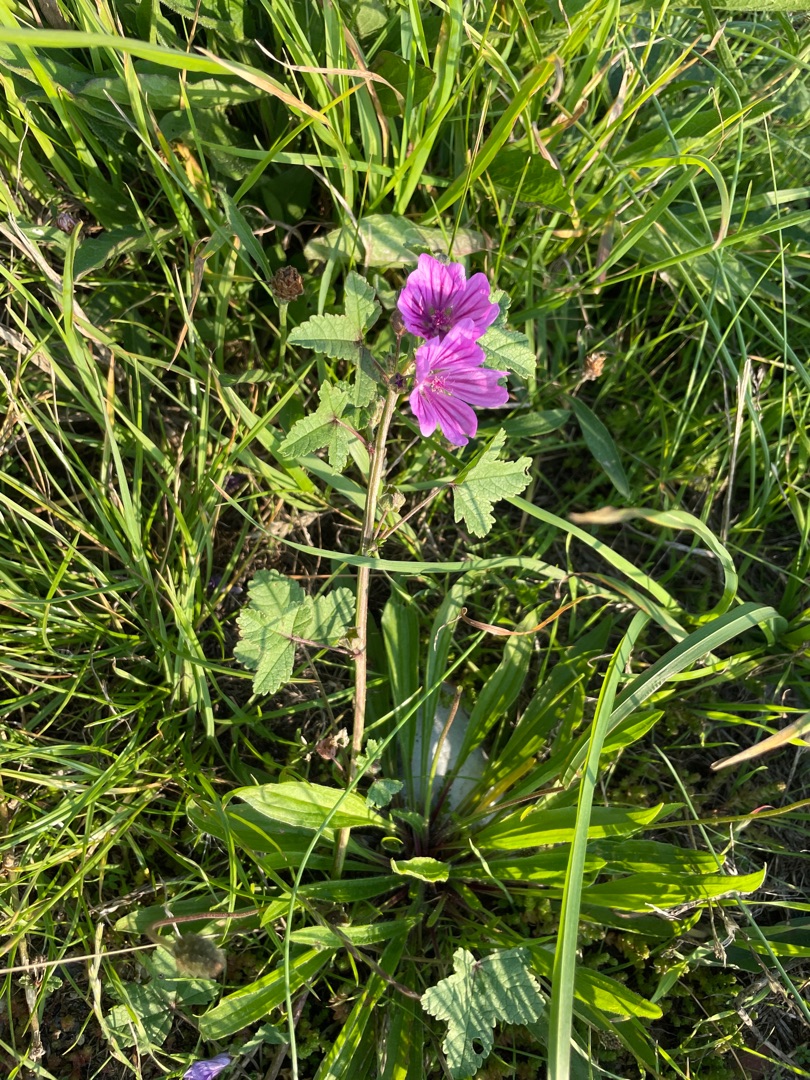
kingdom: Plantae
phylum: Tracheophyta
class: Magnoliopsida
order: Malvales
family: Malvaceae
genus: Malva
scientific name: Malva sylvestris
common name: Almindelig katost
